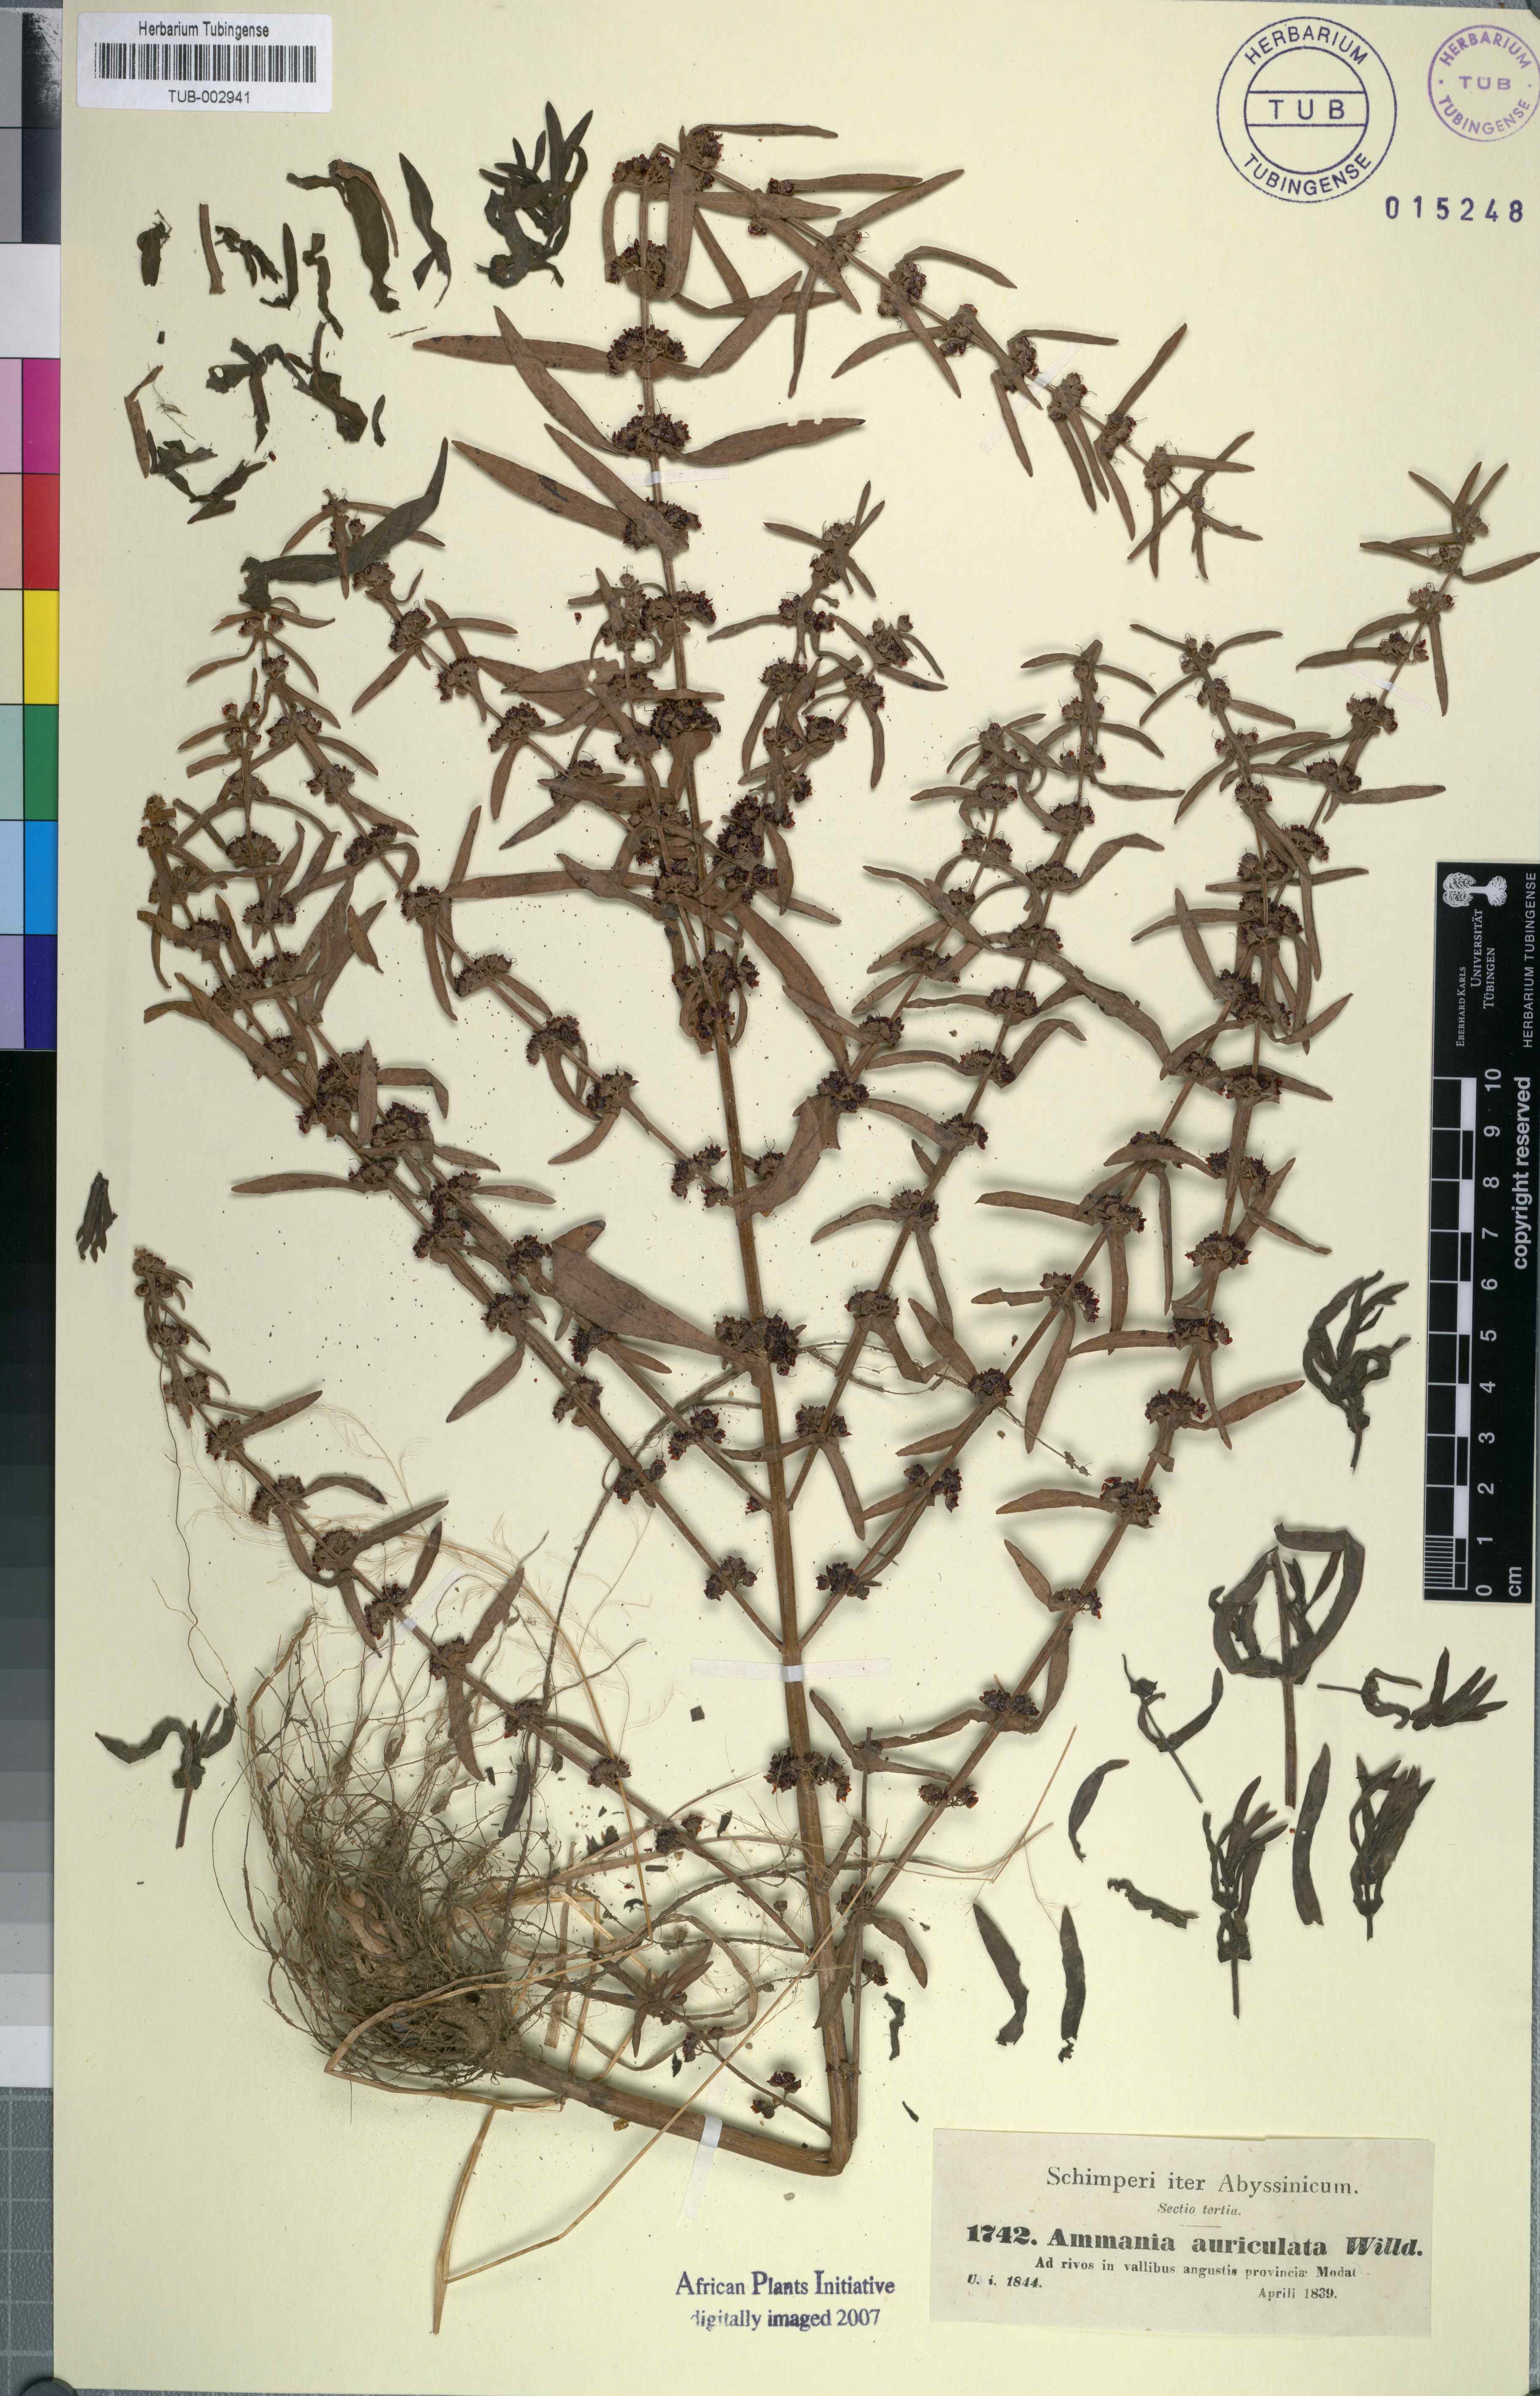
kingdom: Plantae
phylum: Tracheophyta
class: Magnoliopsida
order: Myrtales
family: Lythraceae
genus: Ammannia
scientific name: Ammannia auriculata
